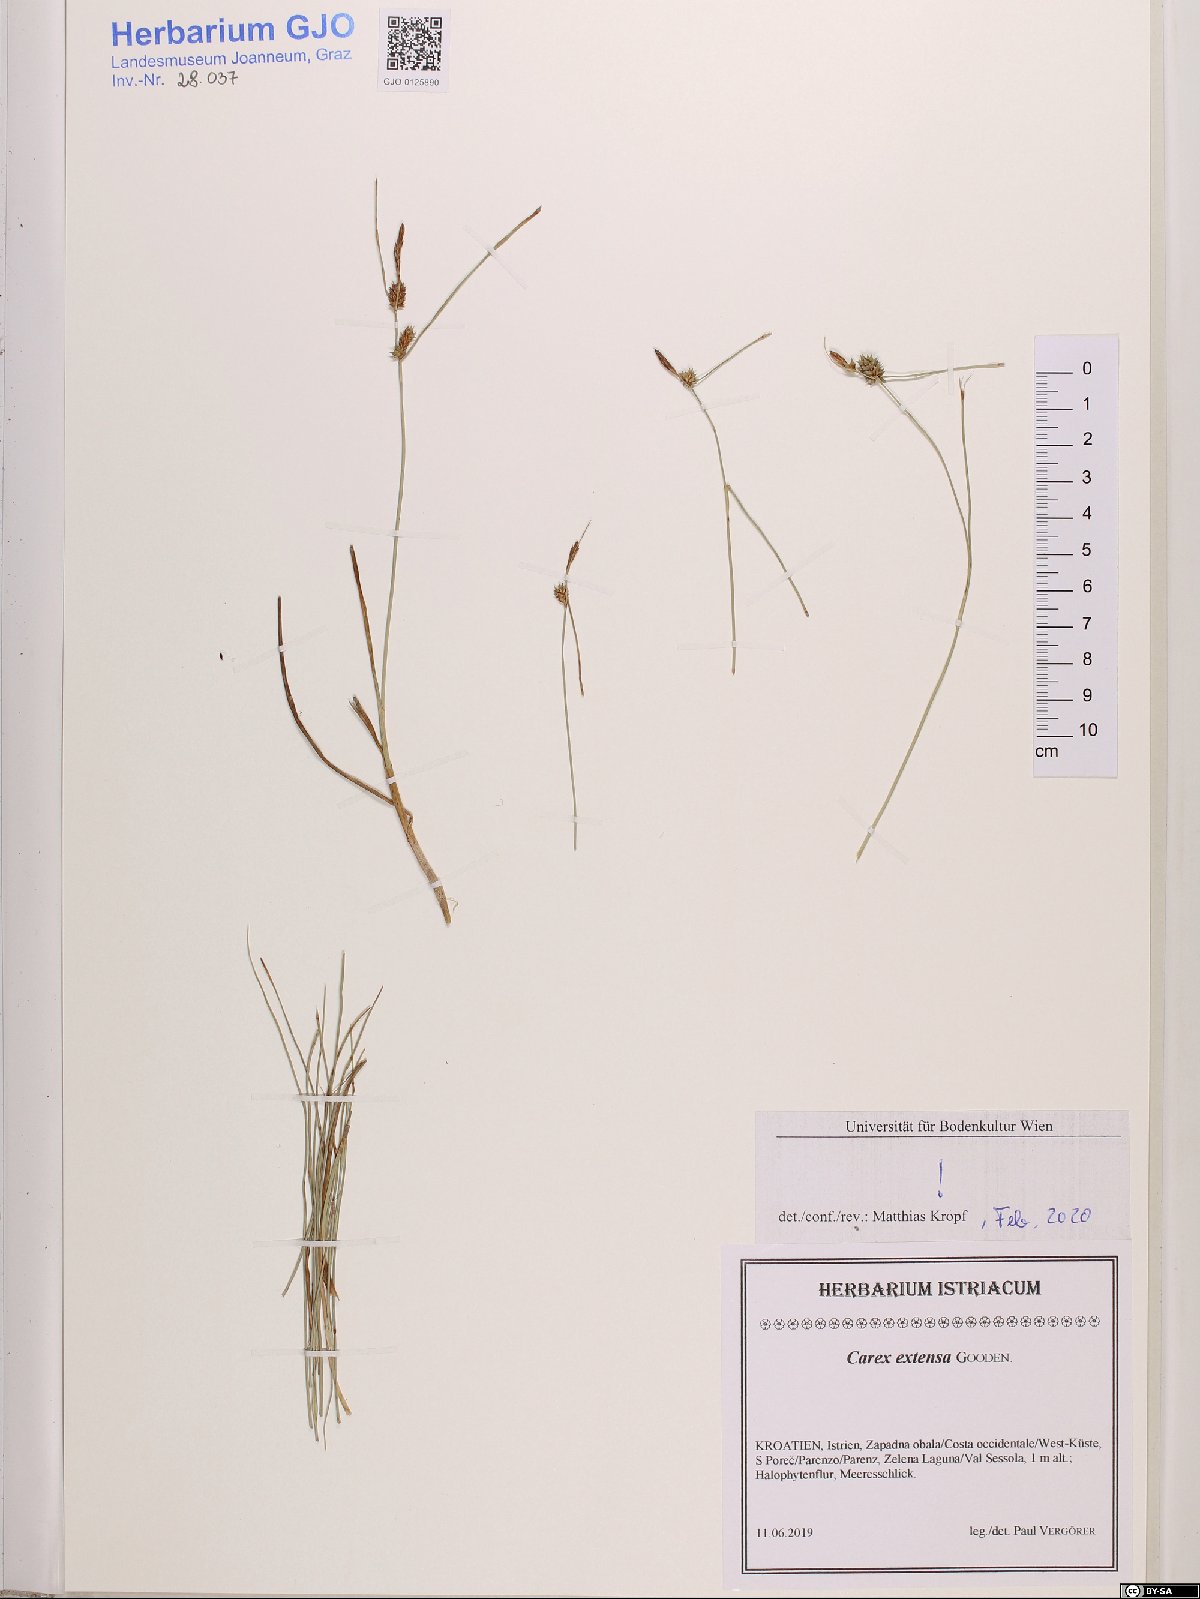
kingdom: Plantae
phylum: Tracheophyta
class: Liliopsida
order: Poales
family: Cyperaceae
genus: Carex
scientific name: Carex extensa
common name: Long-bracted sedge
